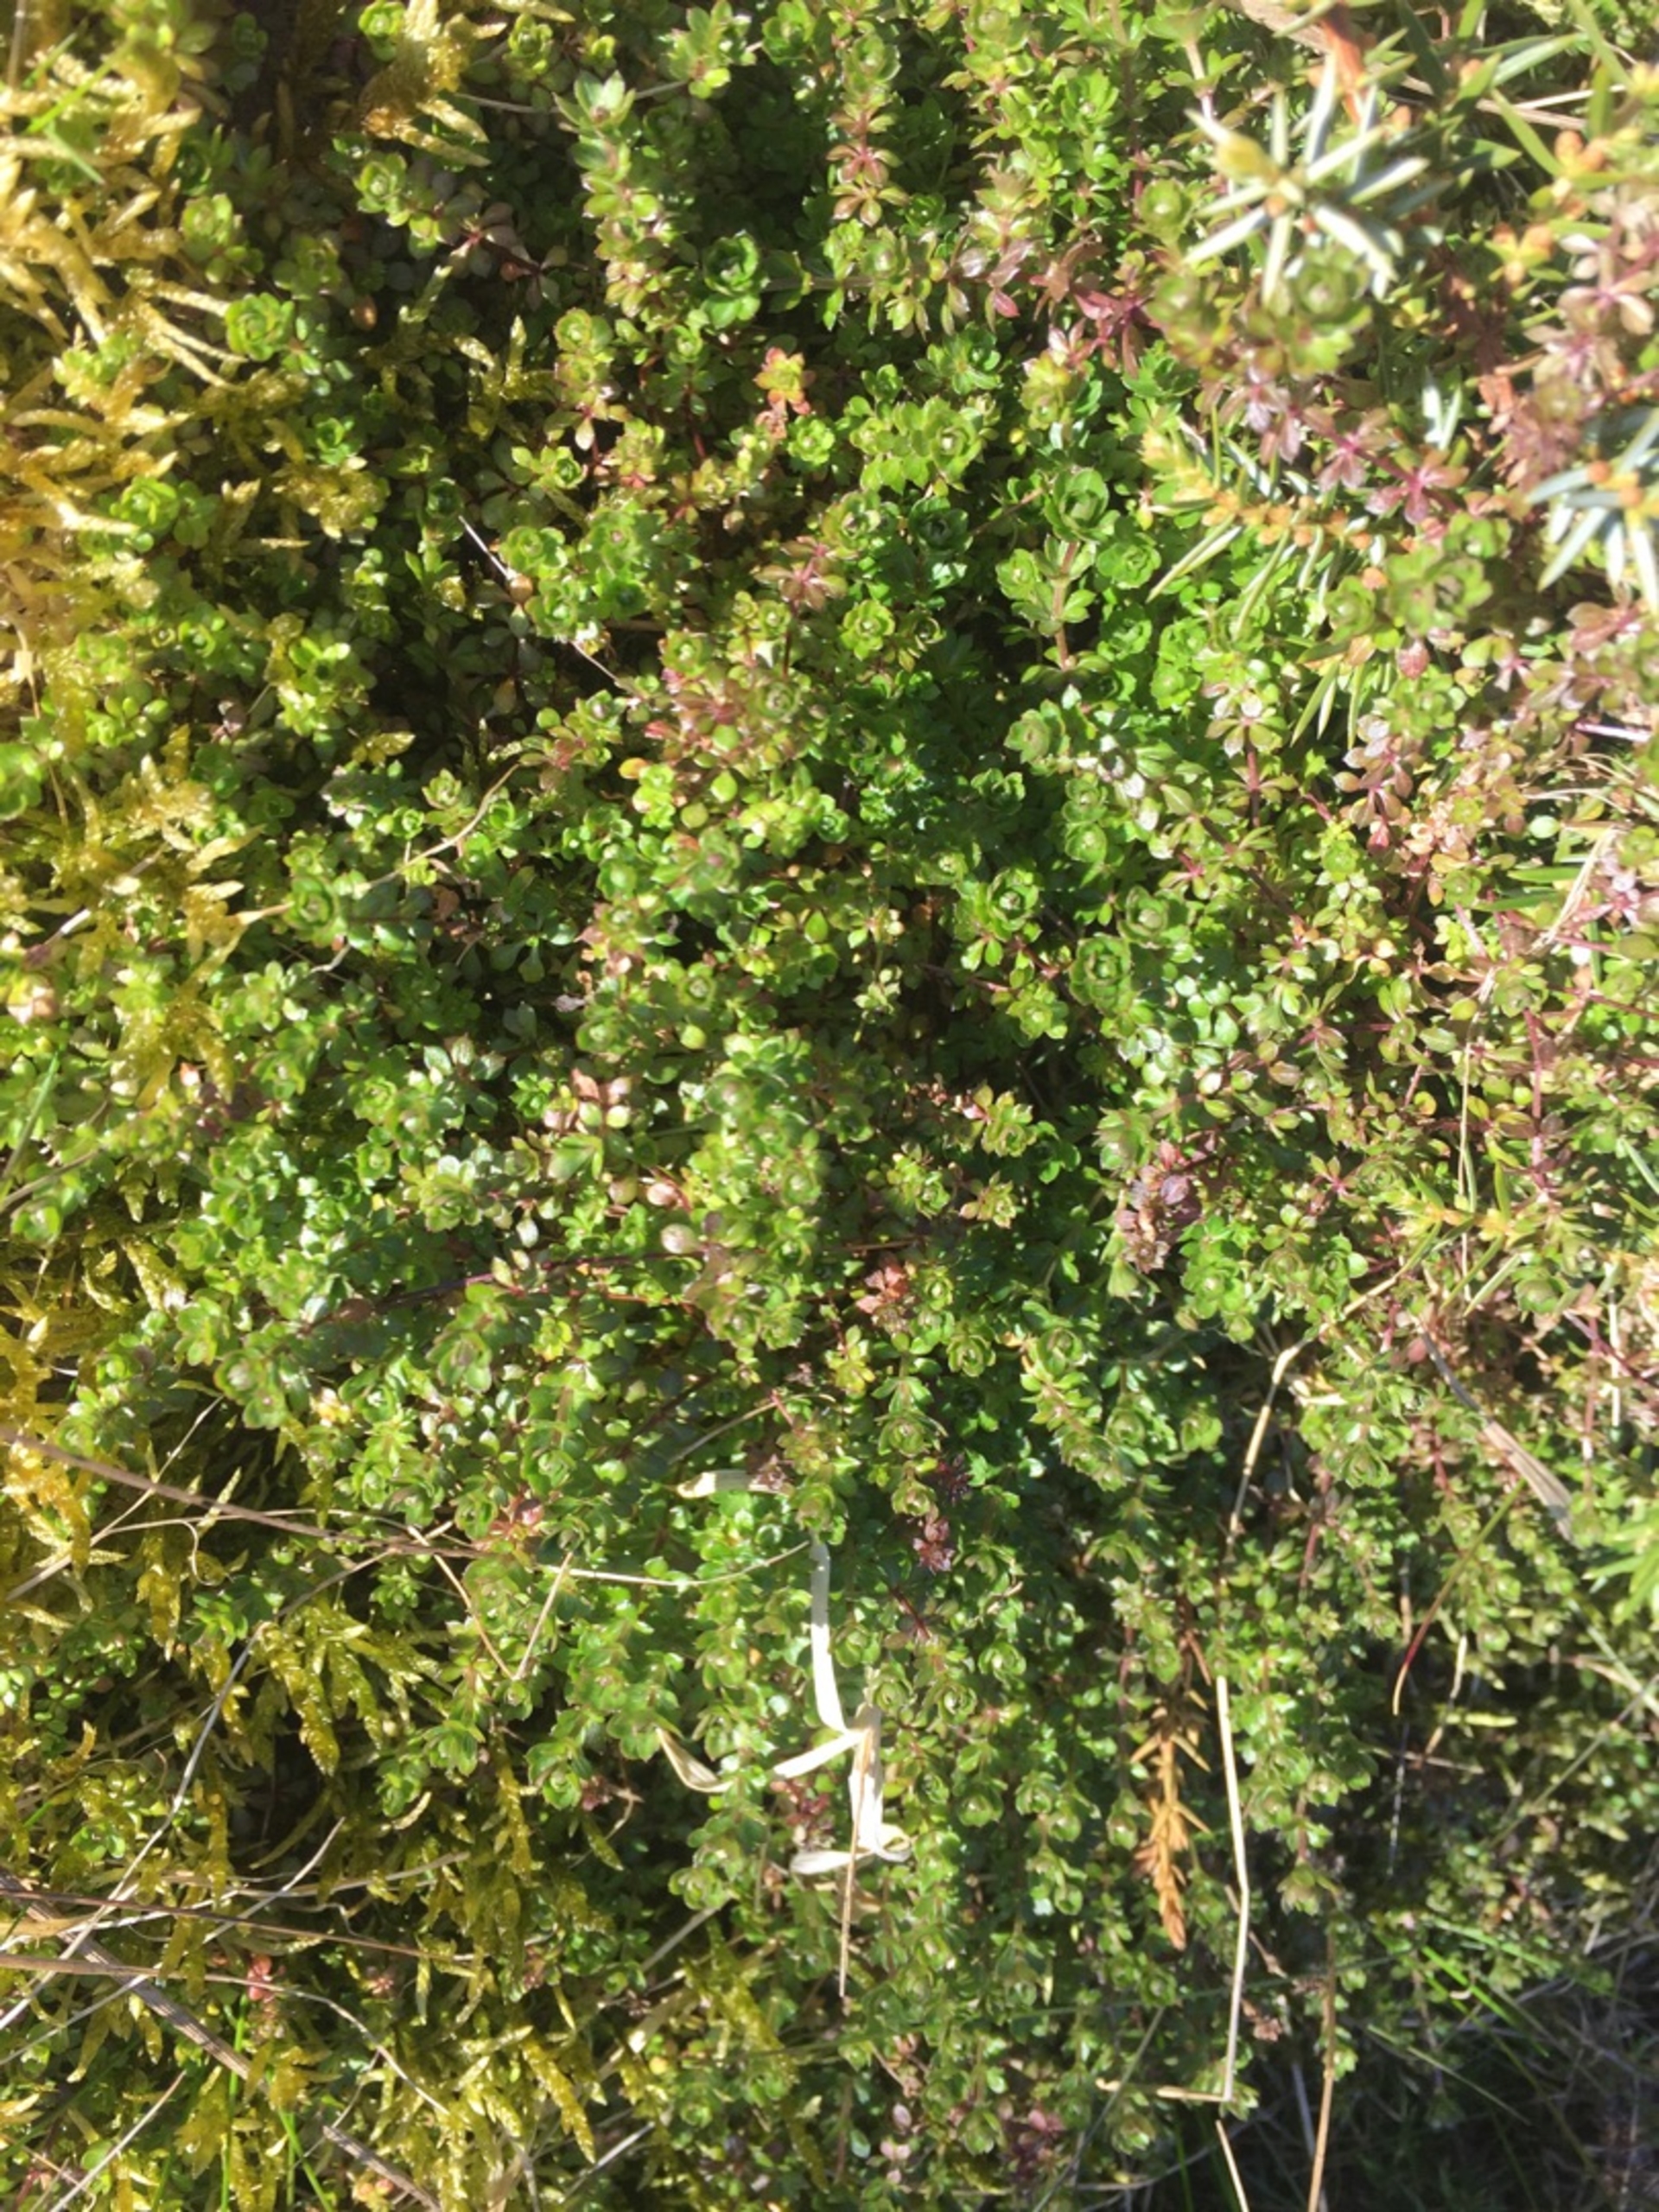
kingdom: Plantae
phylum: Tracheophyta
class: Magnoliopsida
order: Gentianales
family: Rubiaceae
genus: Galium
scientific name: Galium saxatile
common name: Lyng-snerre
